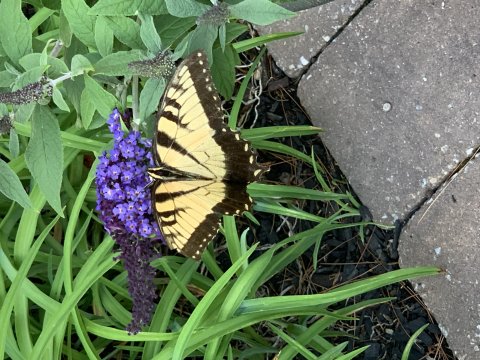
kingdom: Animalia
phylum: Arthropoda
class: Insecta
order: Lepidoptera
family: Papilionidae
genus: Pterourus
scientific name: Pterourus glaucus
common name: Eastern Tiger Swallowtail
